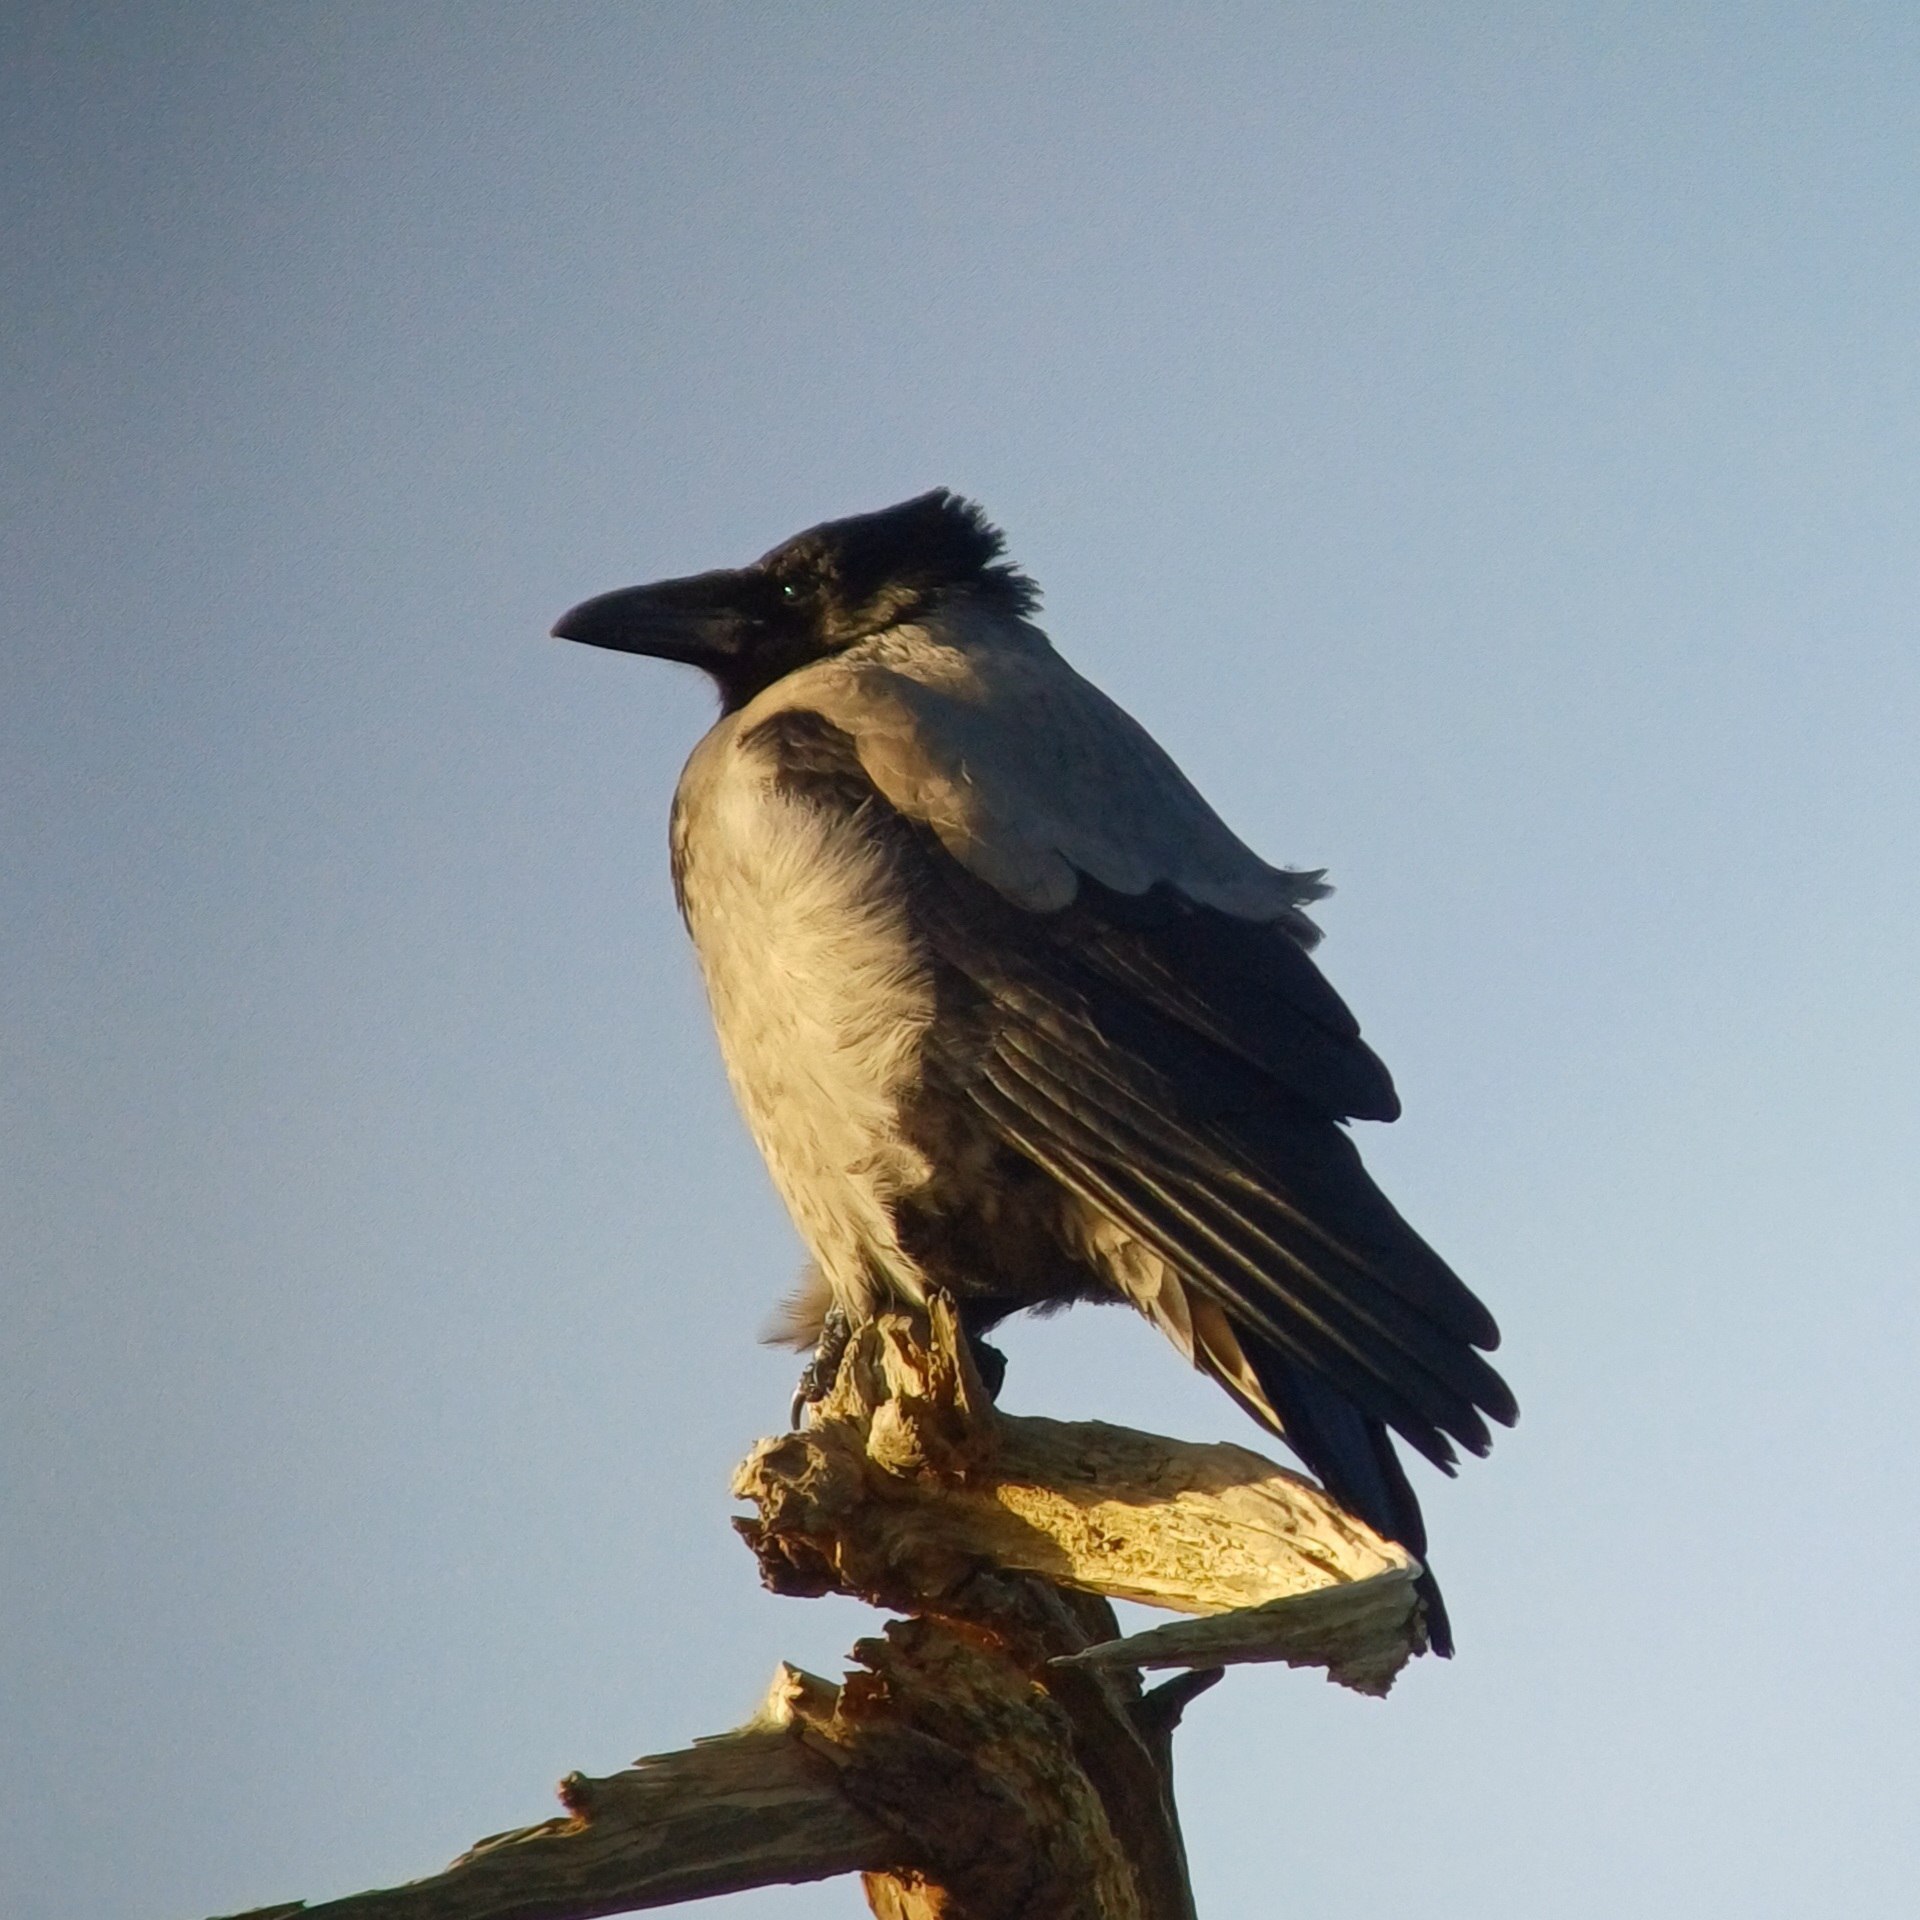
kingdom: Animalia
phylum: Chordata
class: Aves
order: Passeriformes
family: Corvidae
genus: Corvus
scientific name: Corvus cornix
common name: Gråkrage
